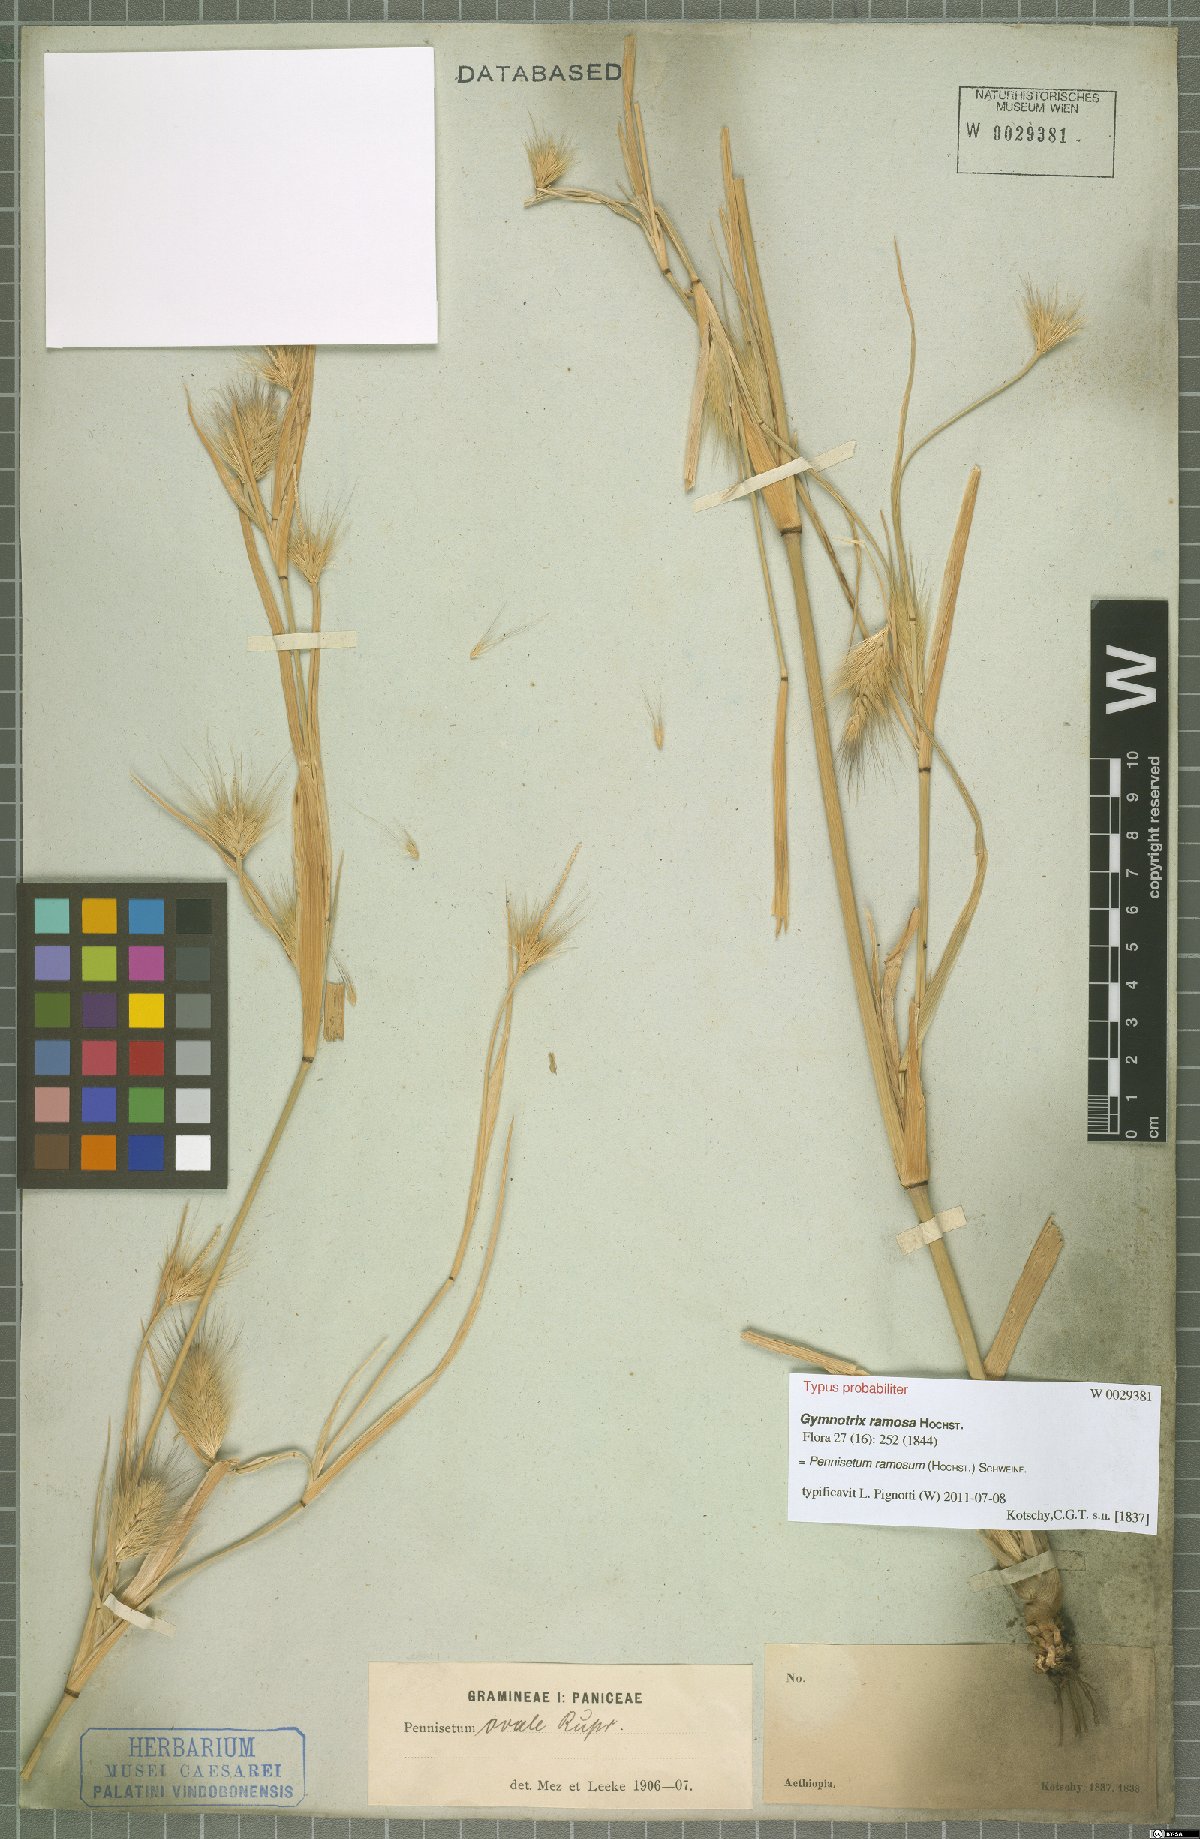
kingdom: Plantae
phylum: Tracheophyta
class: Liliopsida
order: Poales
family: Poaceae
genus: Cenchrus
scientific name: Cenchrus ramosus
